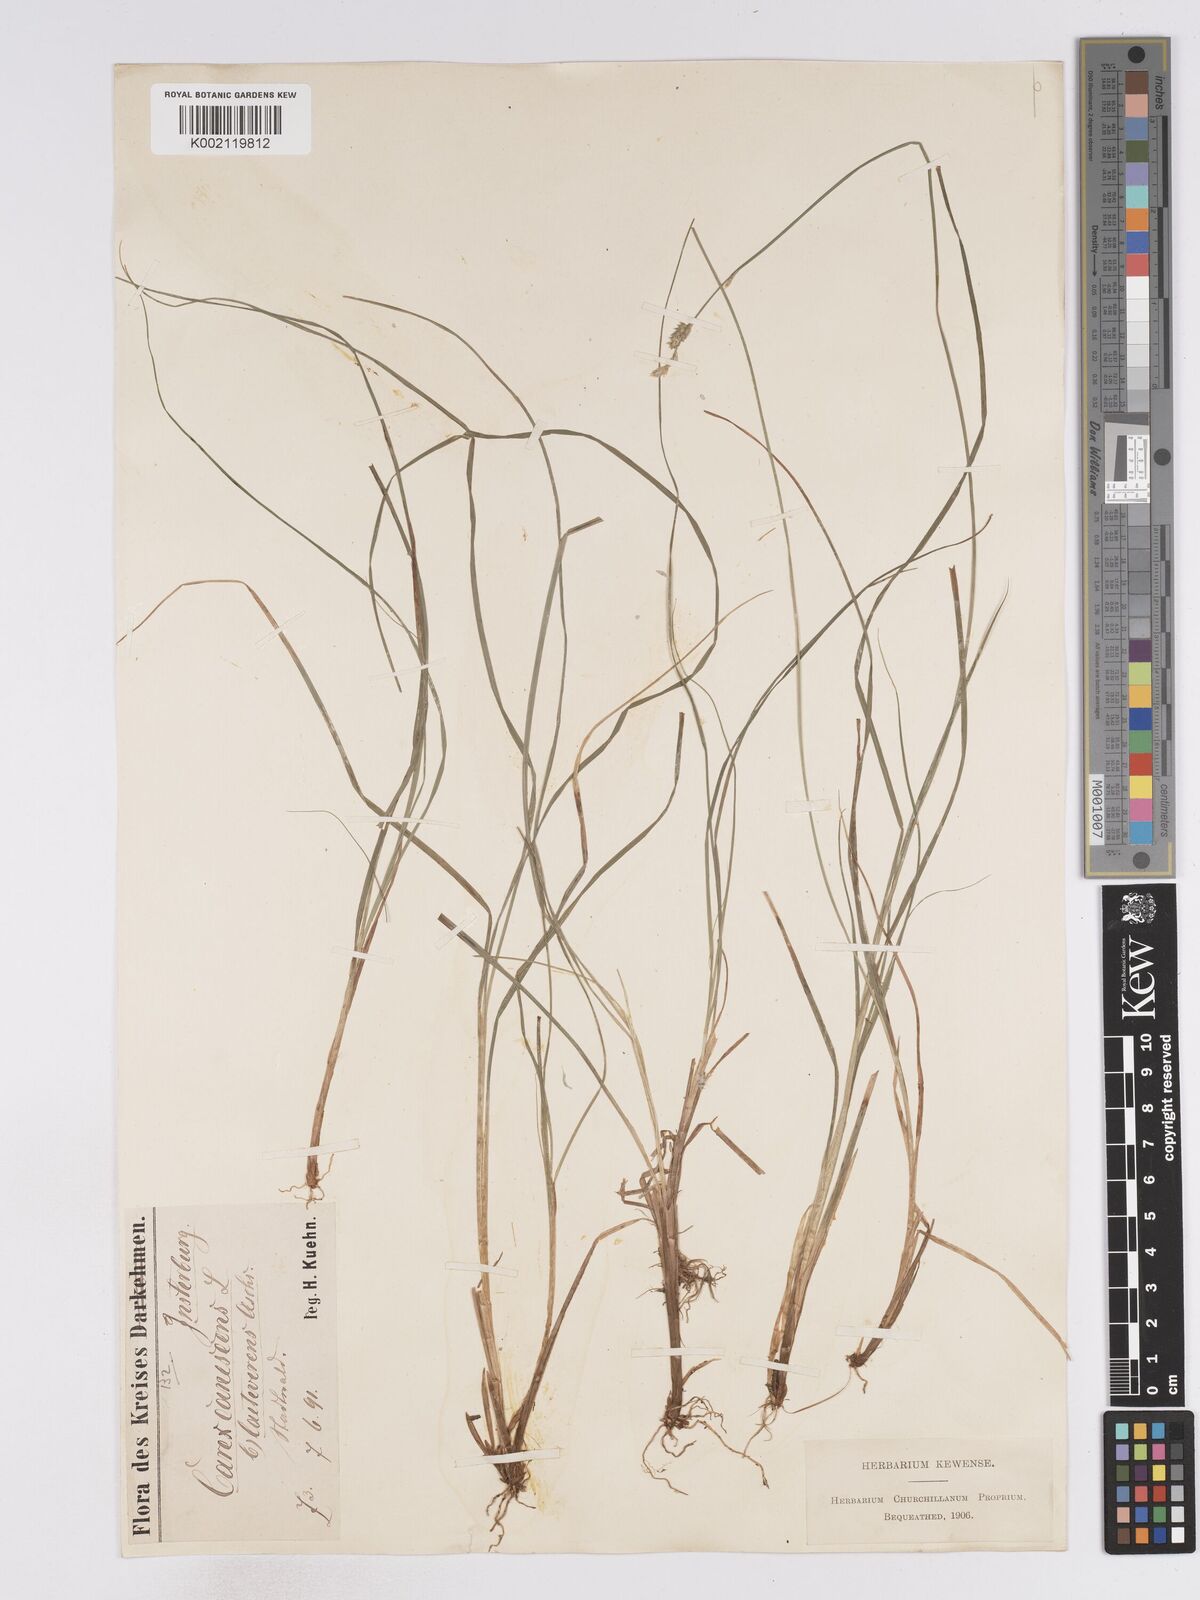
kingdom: Plantae
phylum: Tracheophyta
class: Liliopsida
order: Poales
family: Cyperaceae
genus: Carex
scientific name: Carex curta
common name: White sedge
